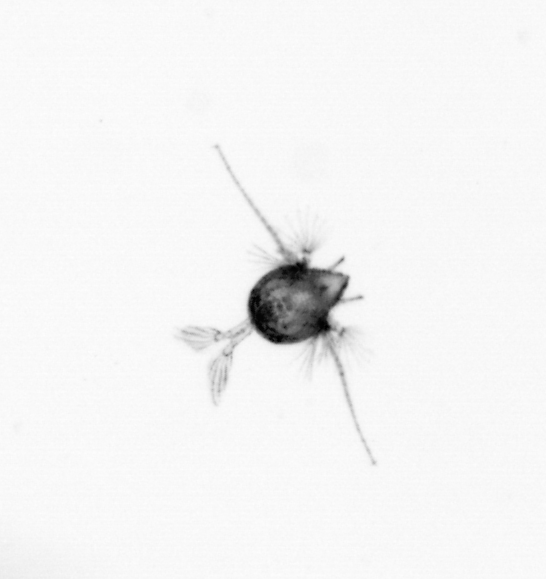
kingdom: Animalia
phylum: Arthropoda
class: Copepoda
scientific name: Copepoda
